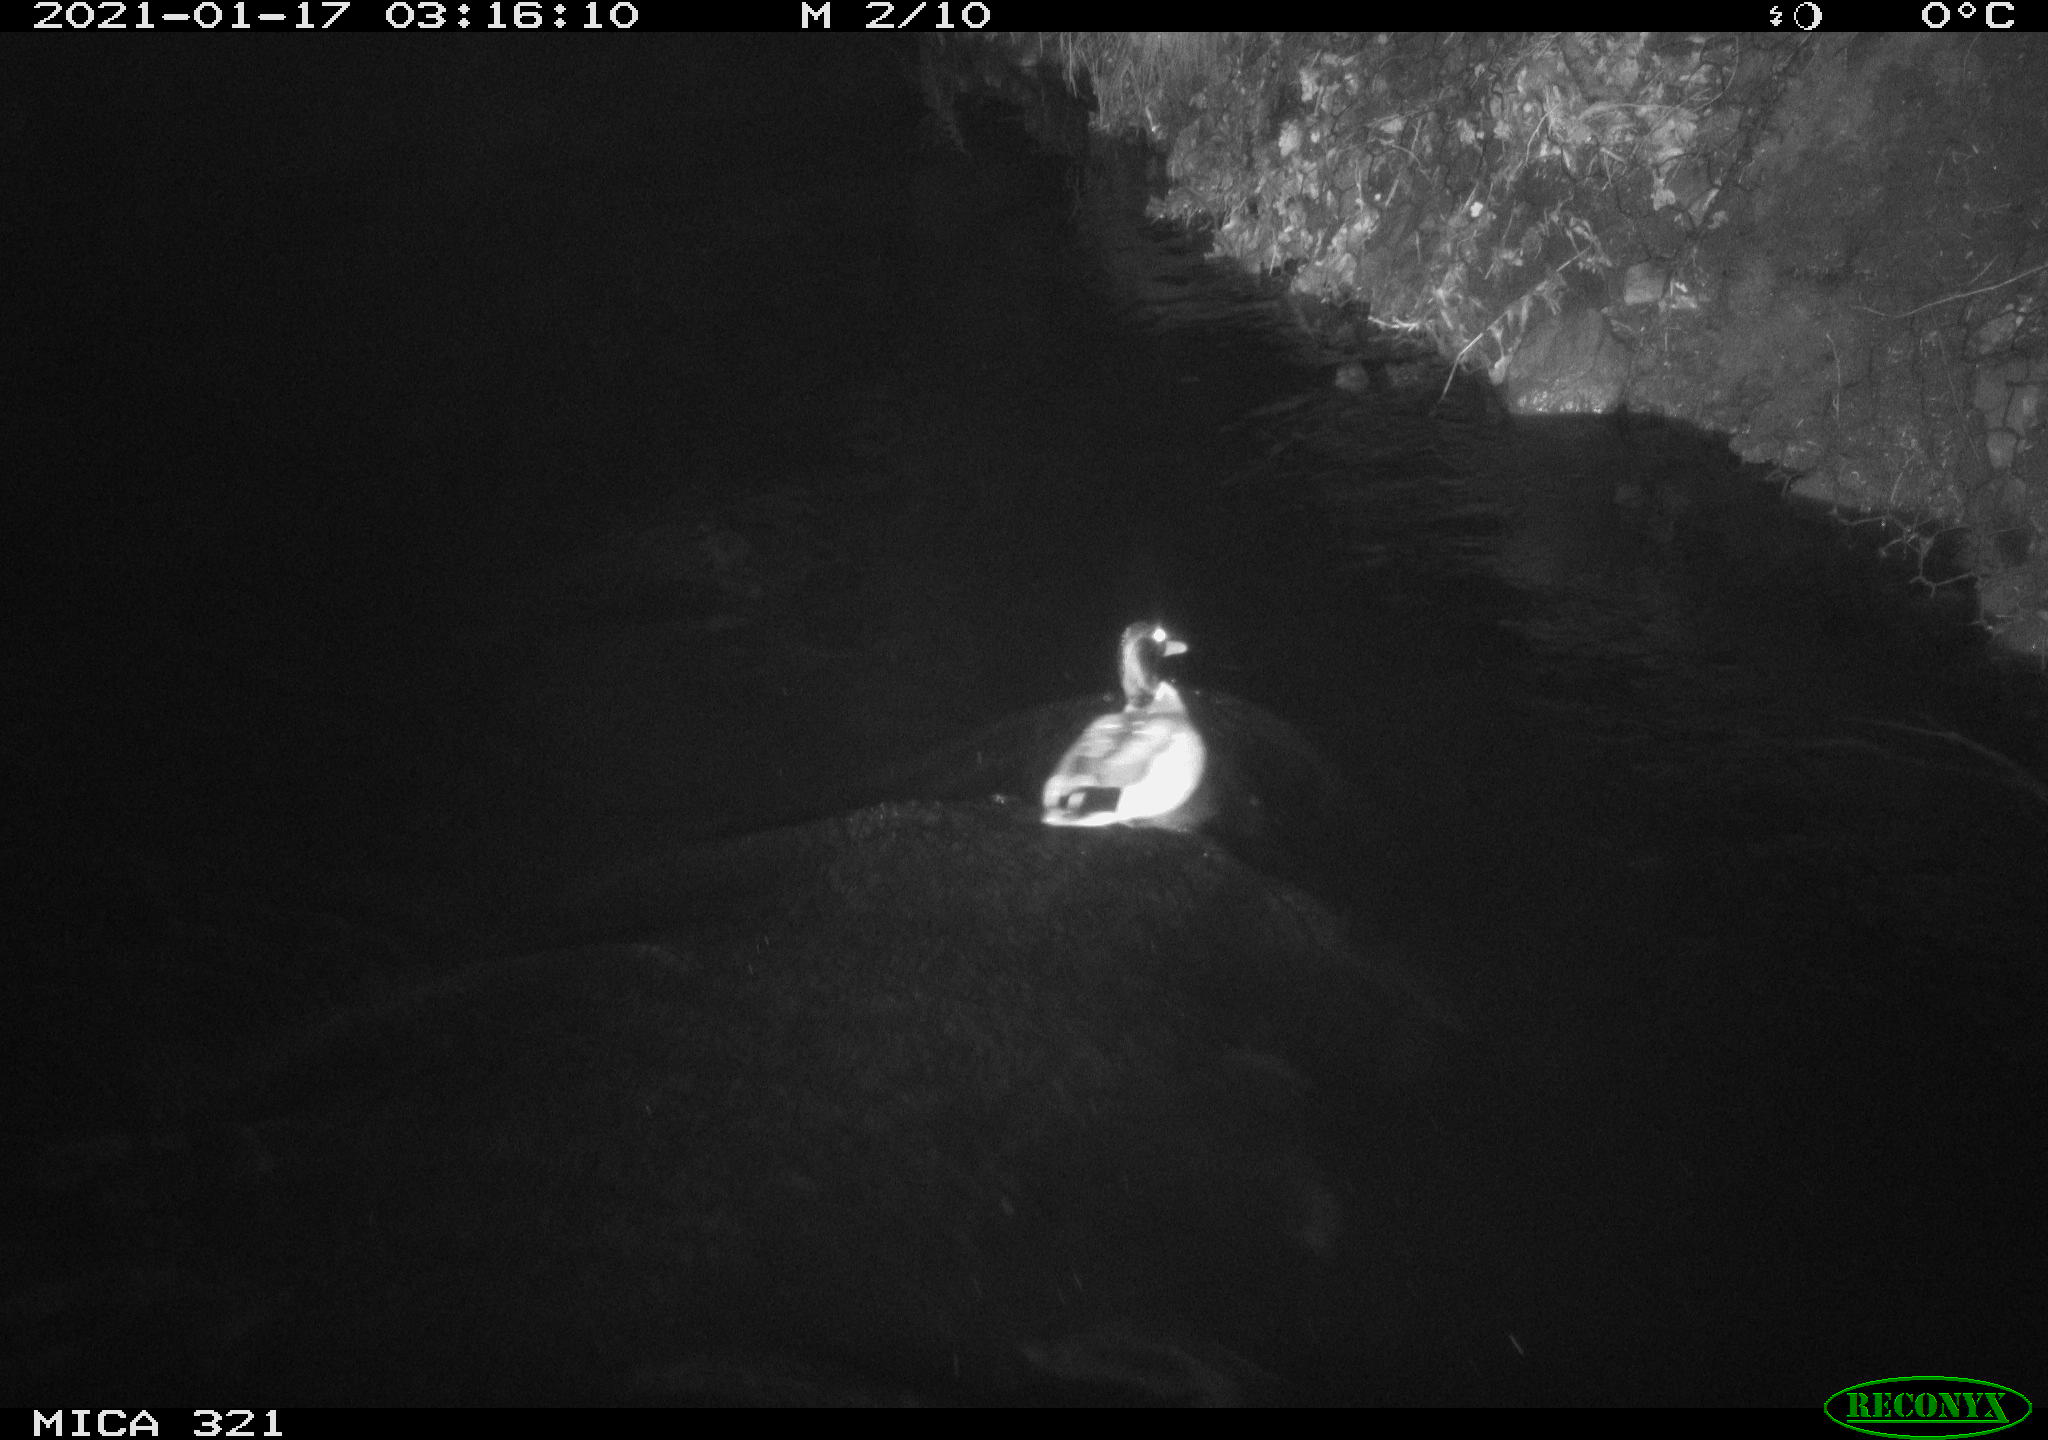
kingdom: Animalia
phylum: Chordata
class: Aves
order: Anseriformes
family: Anatidae
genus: Anas
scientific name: Anas platyrhynchos
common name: Mallard
